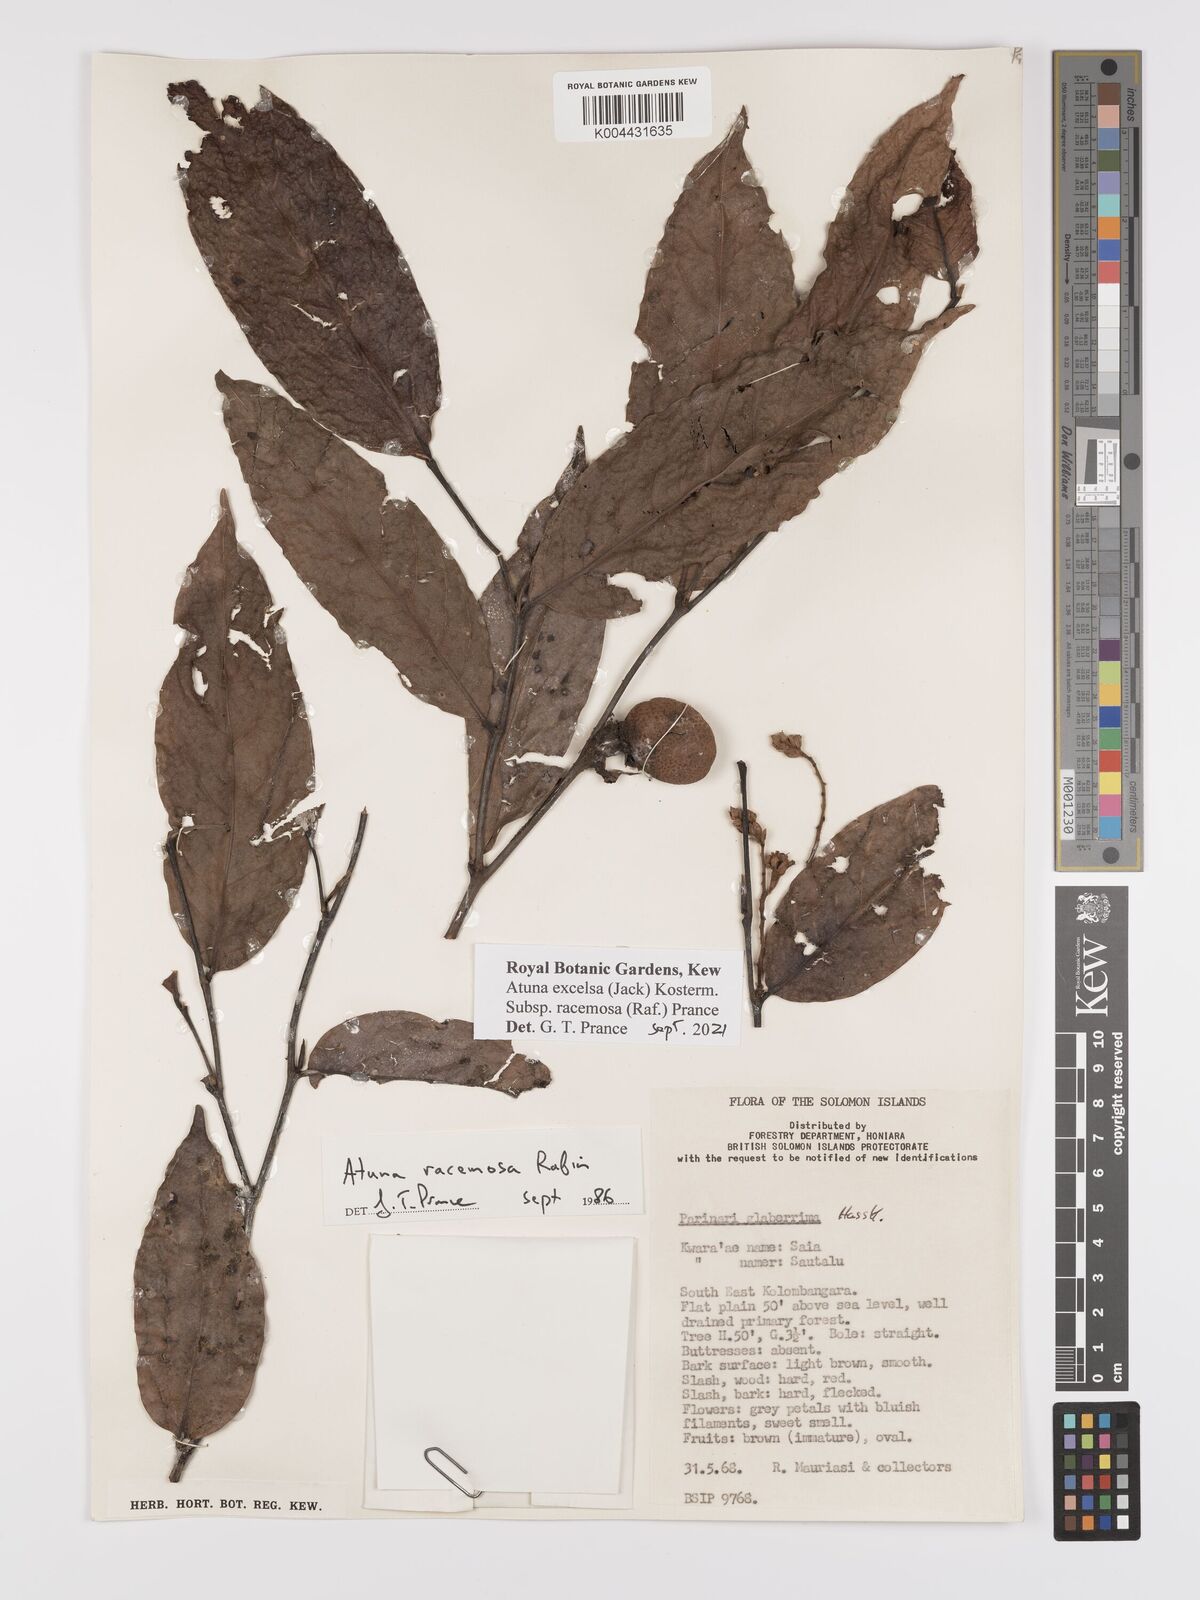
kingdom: Plantae
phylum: Tracheophyta
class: Magnoliopsida
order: Malpighiales
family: Chrysobalanaceae
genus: Atuna
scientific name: Atuna excelsa
